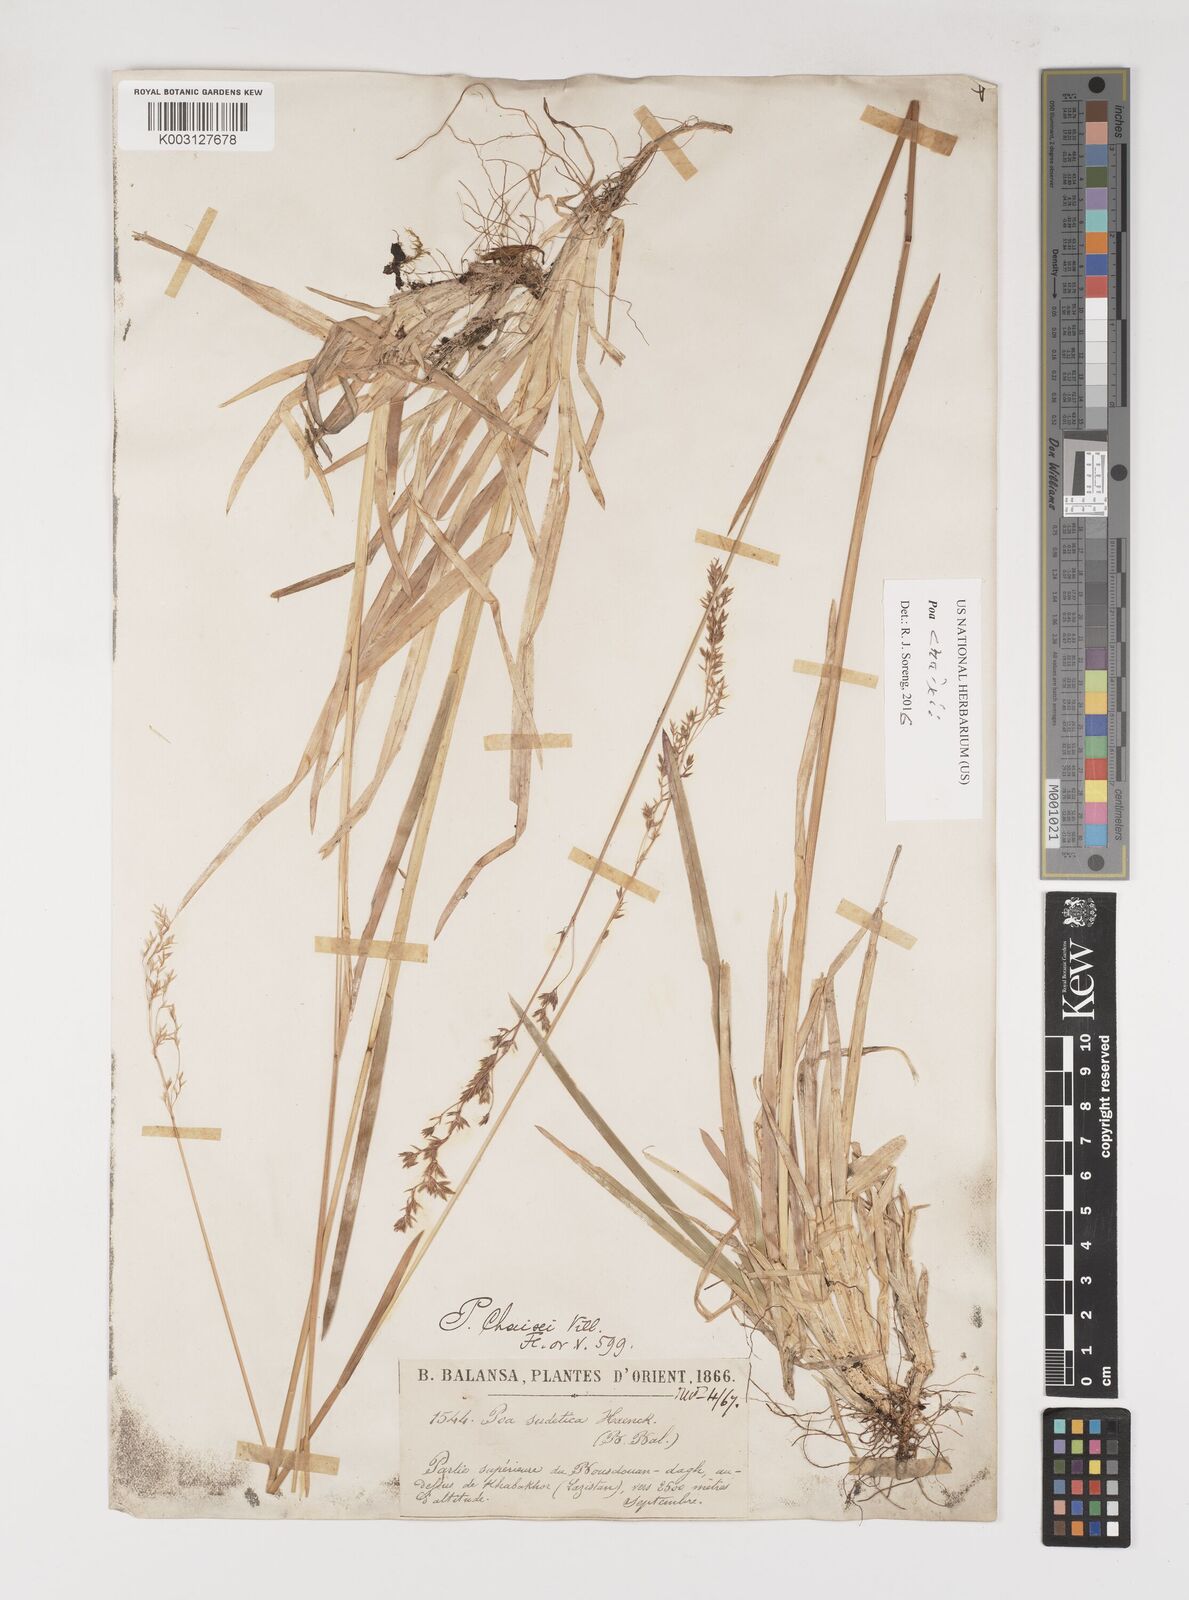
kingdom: Plantae
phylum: Tracheophyta
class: Liliopsida
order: Poales
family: Poaceae
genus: Poa
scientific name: Poa chaixii
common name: Broad-leaved meadow-grass
